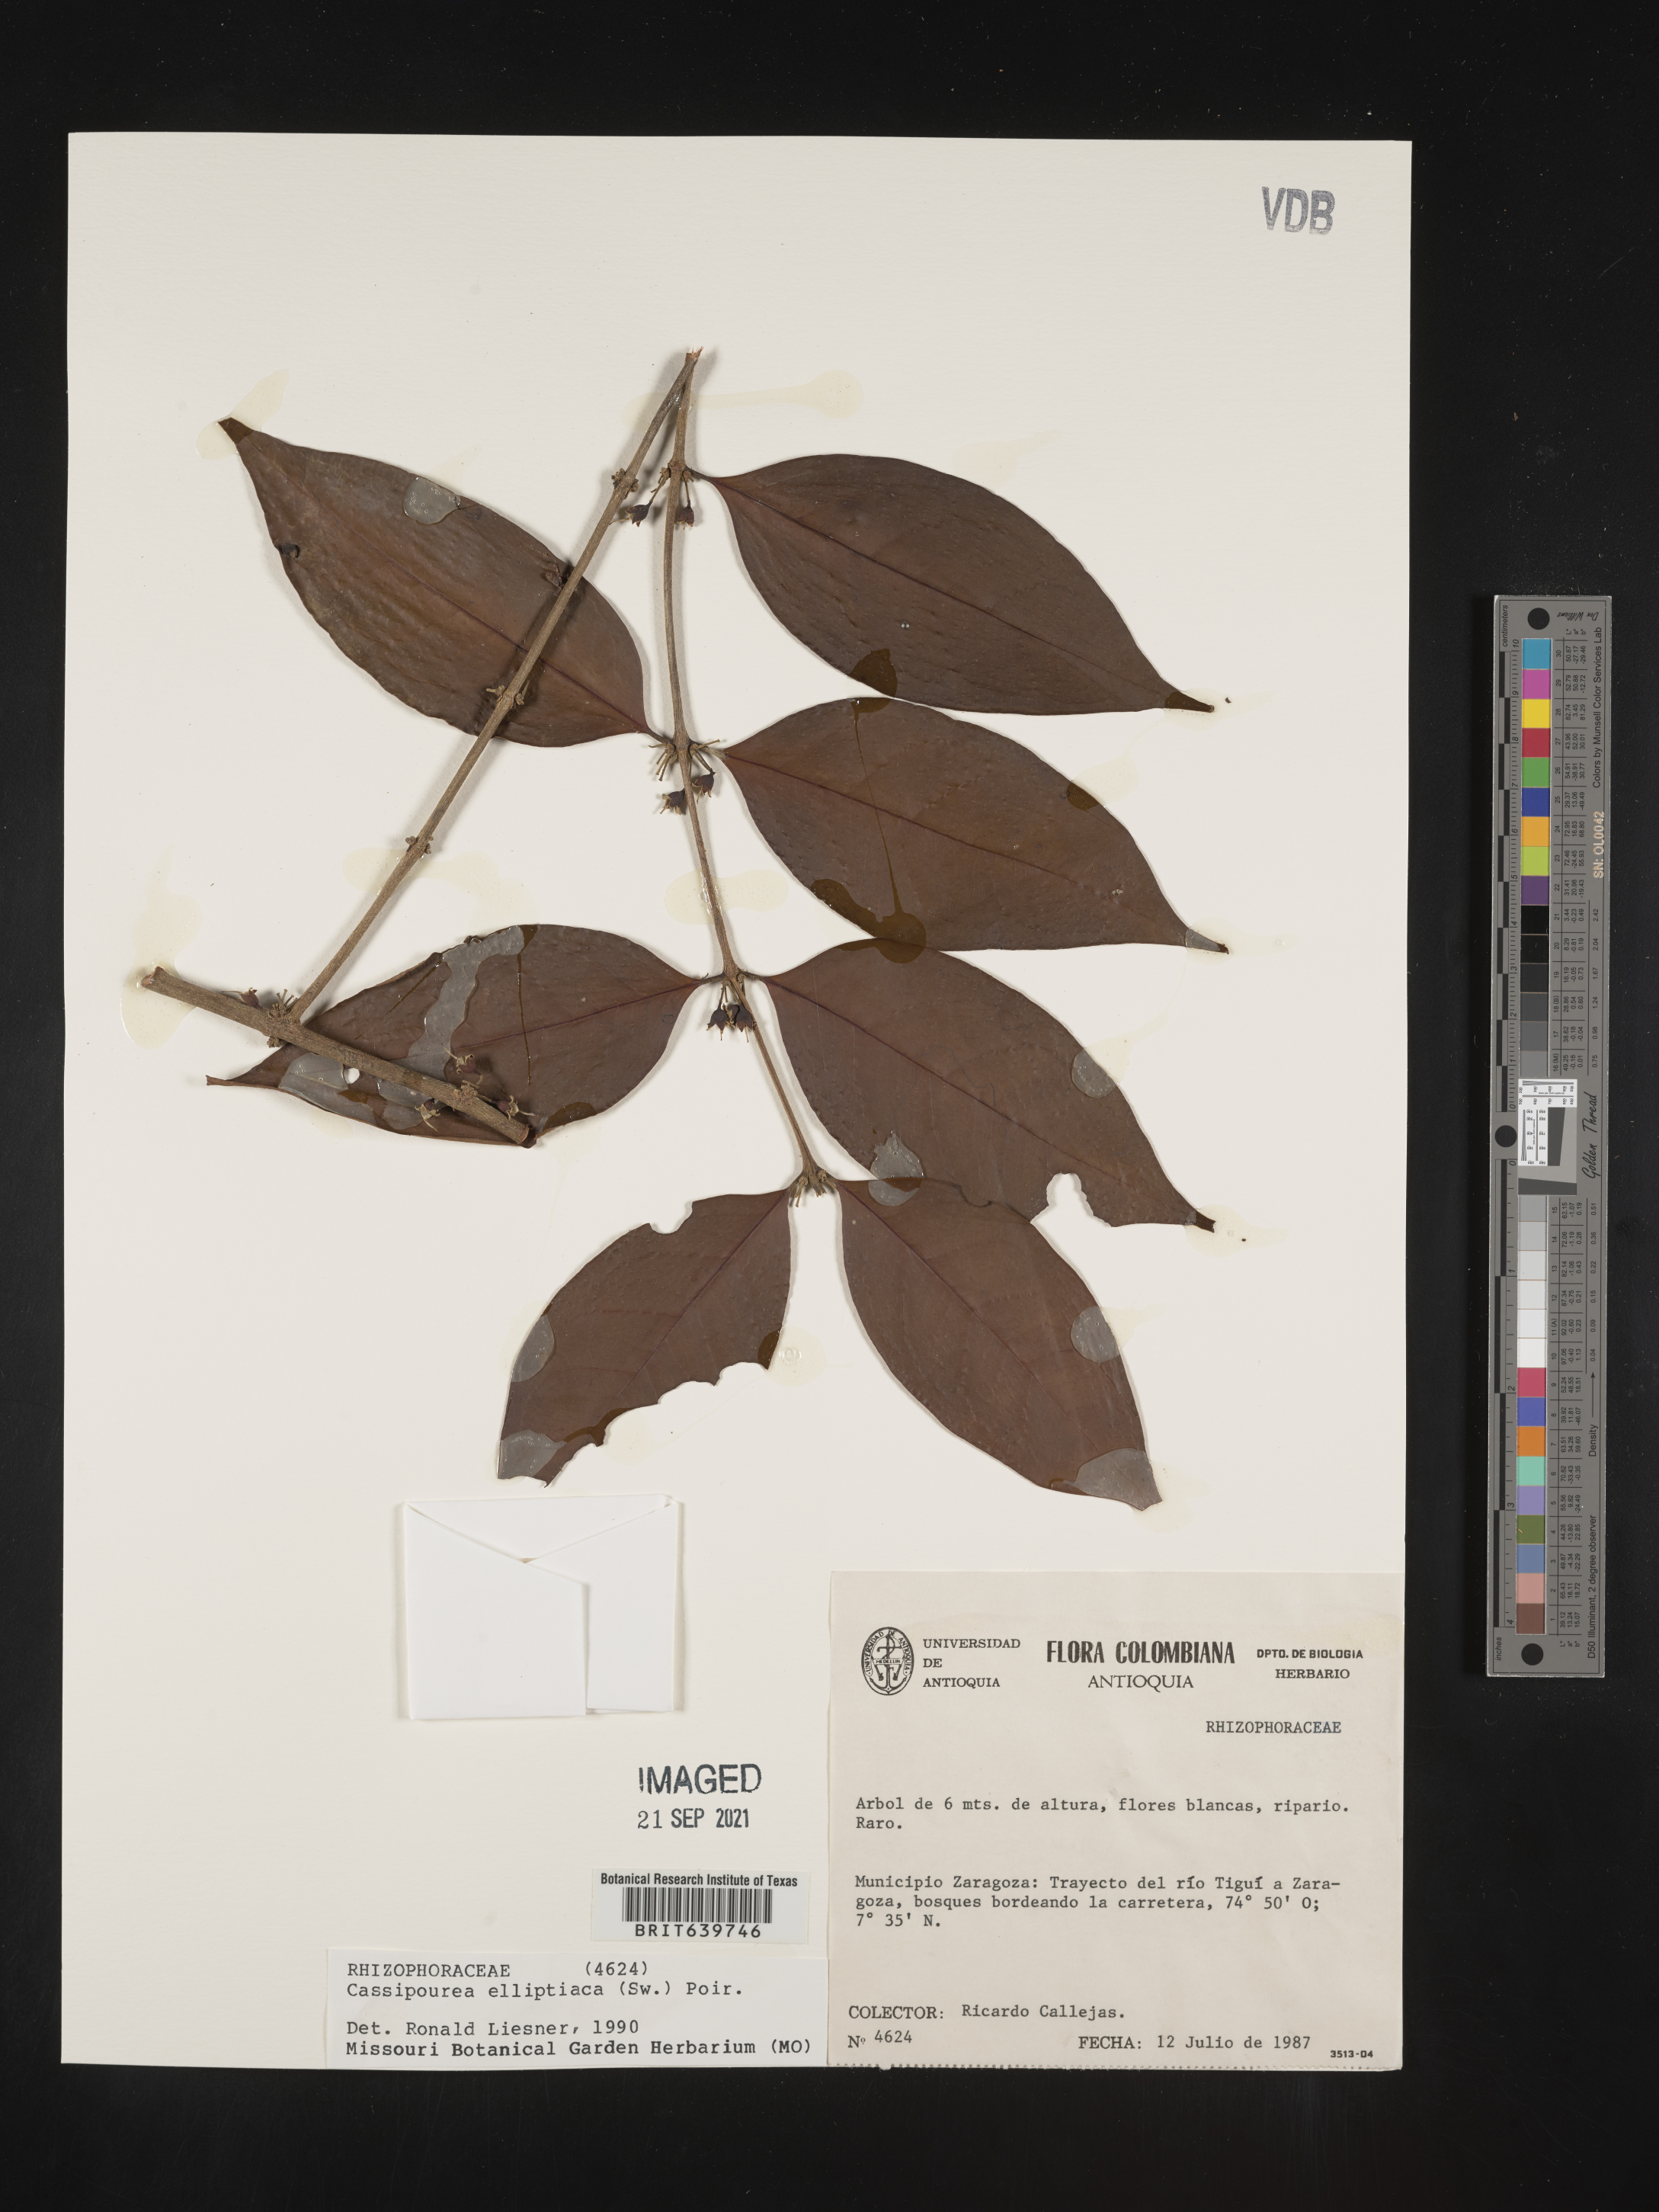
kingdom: Plantae
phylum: Tracheophyta
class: Magnoliopsida
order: Malpighiales
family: Rhizophoraceae
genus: Cassipourea
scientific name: Cassipourea
